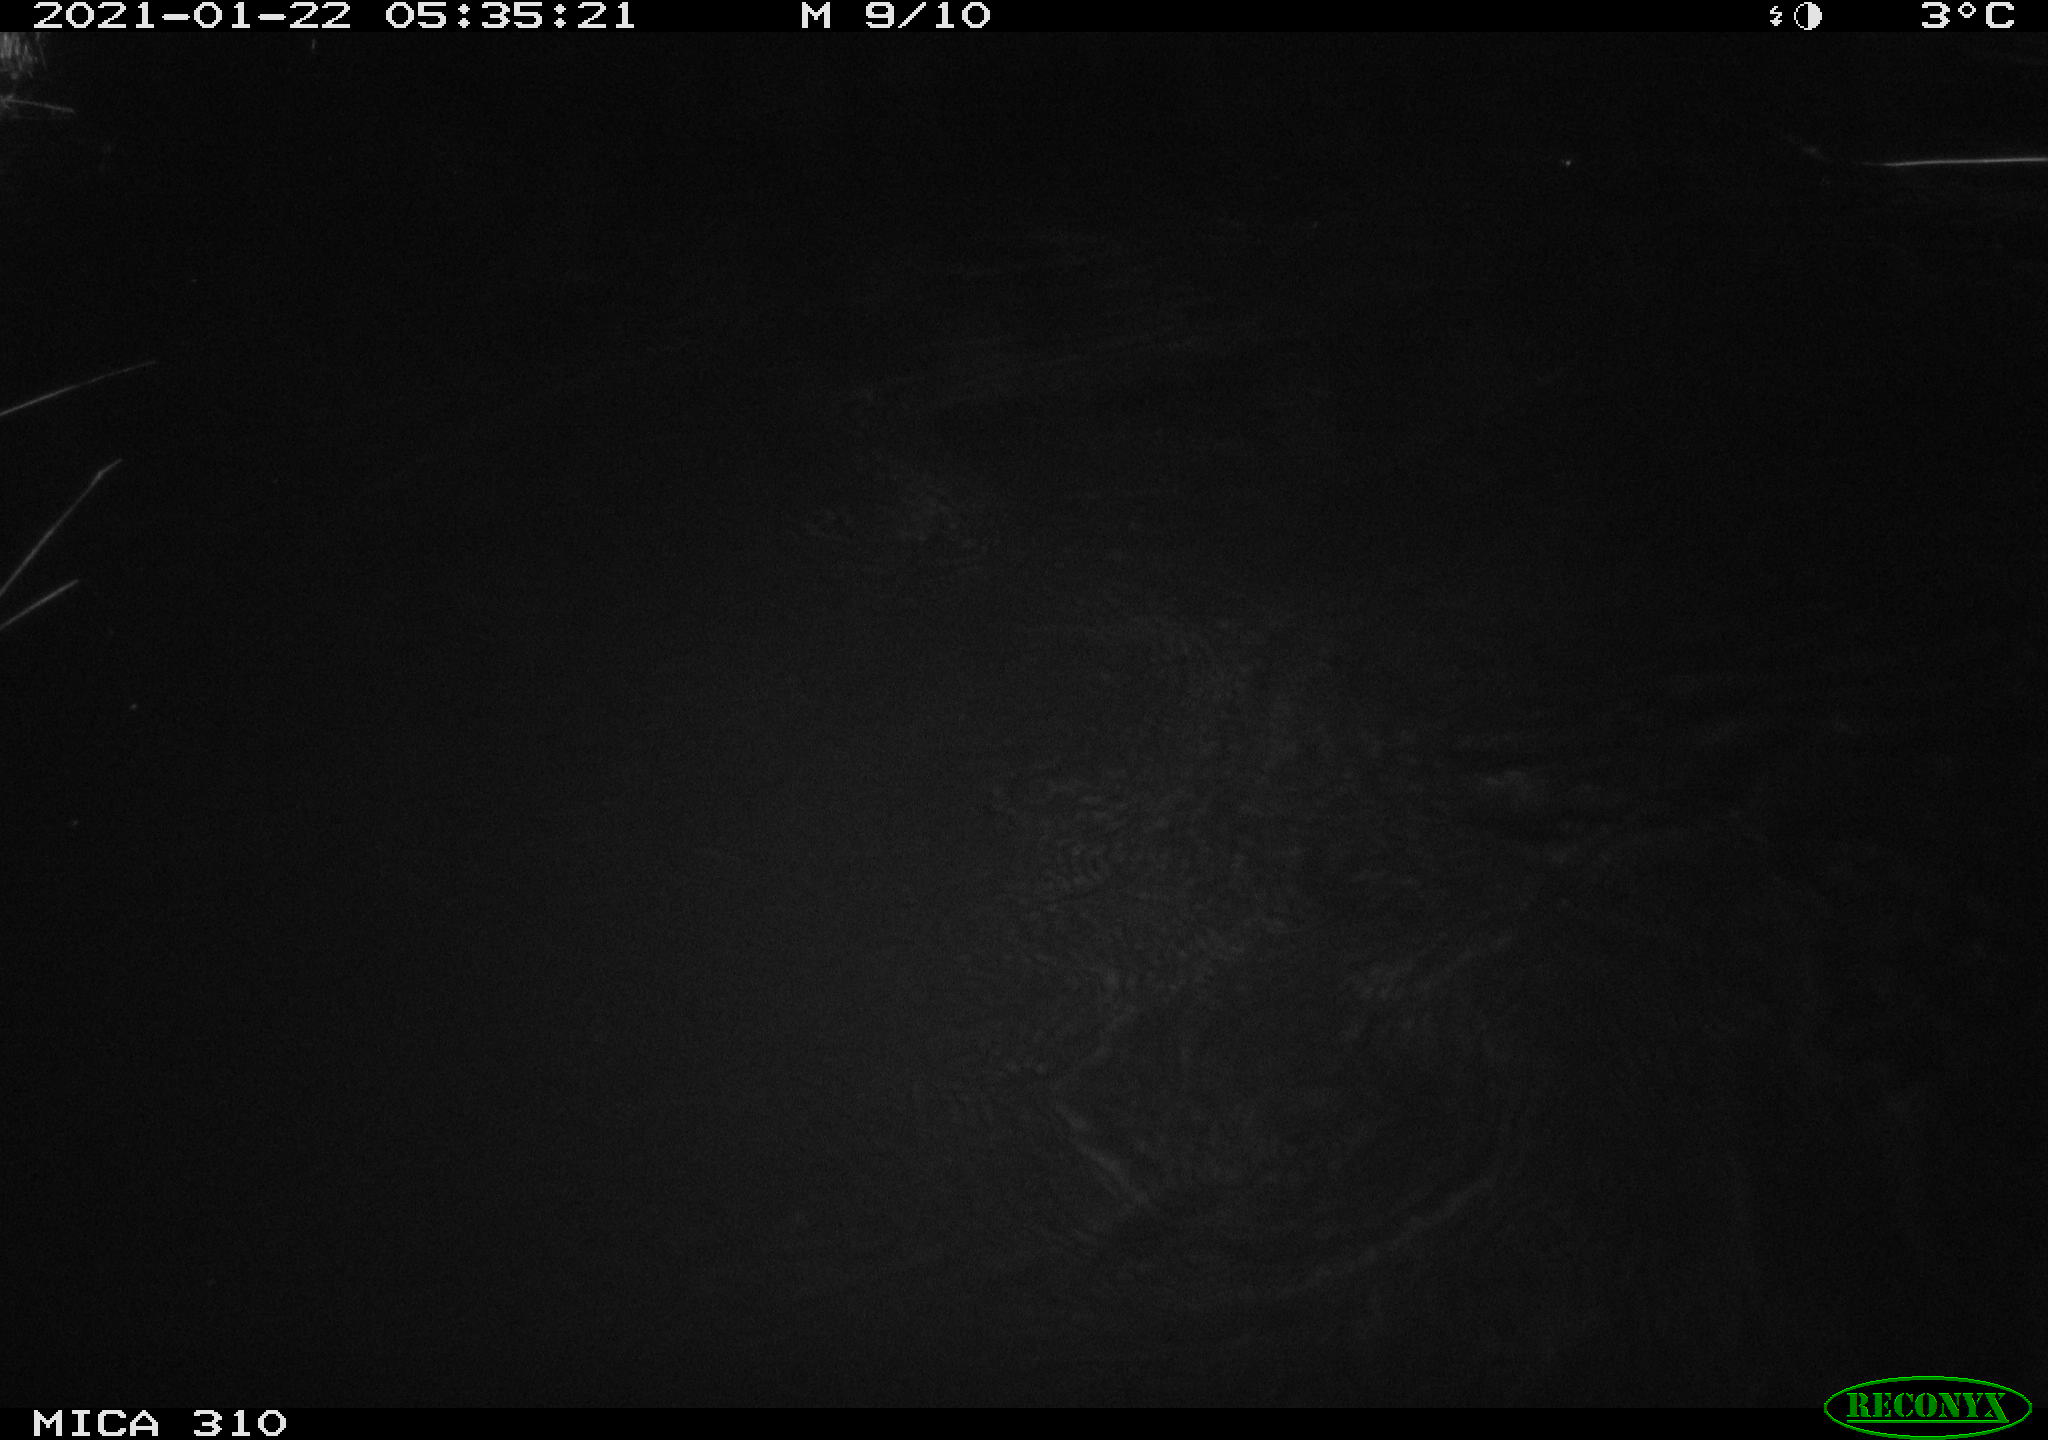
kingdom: Animalia
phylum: Chordata
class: Mammalia
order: Rodentia
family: Muridae
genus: Rattus
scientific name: Rattus norvegicus
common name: Brown rat
